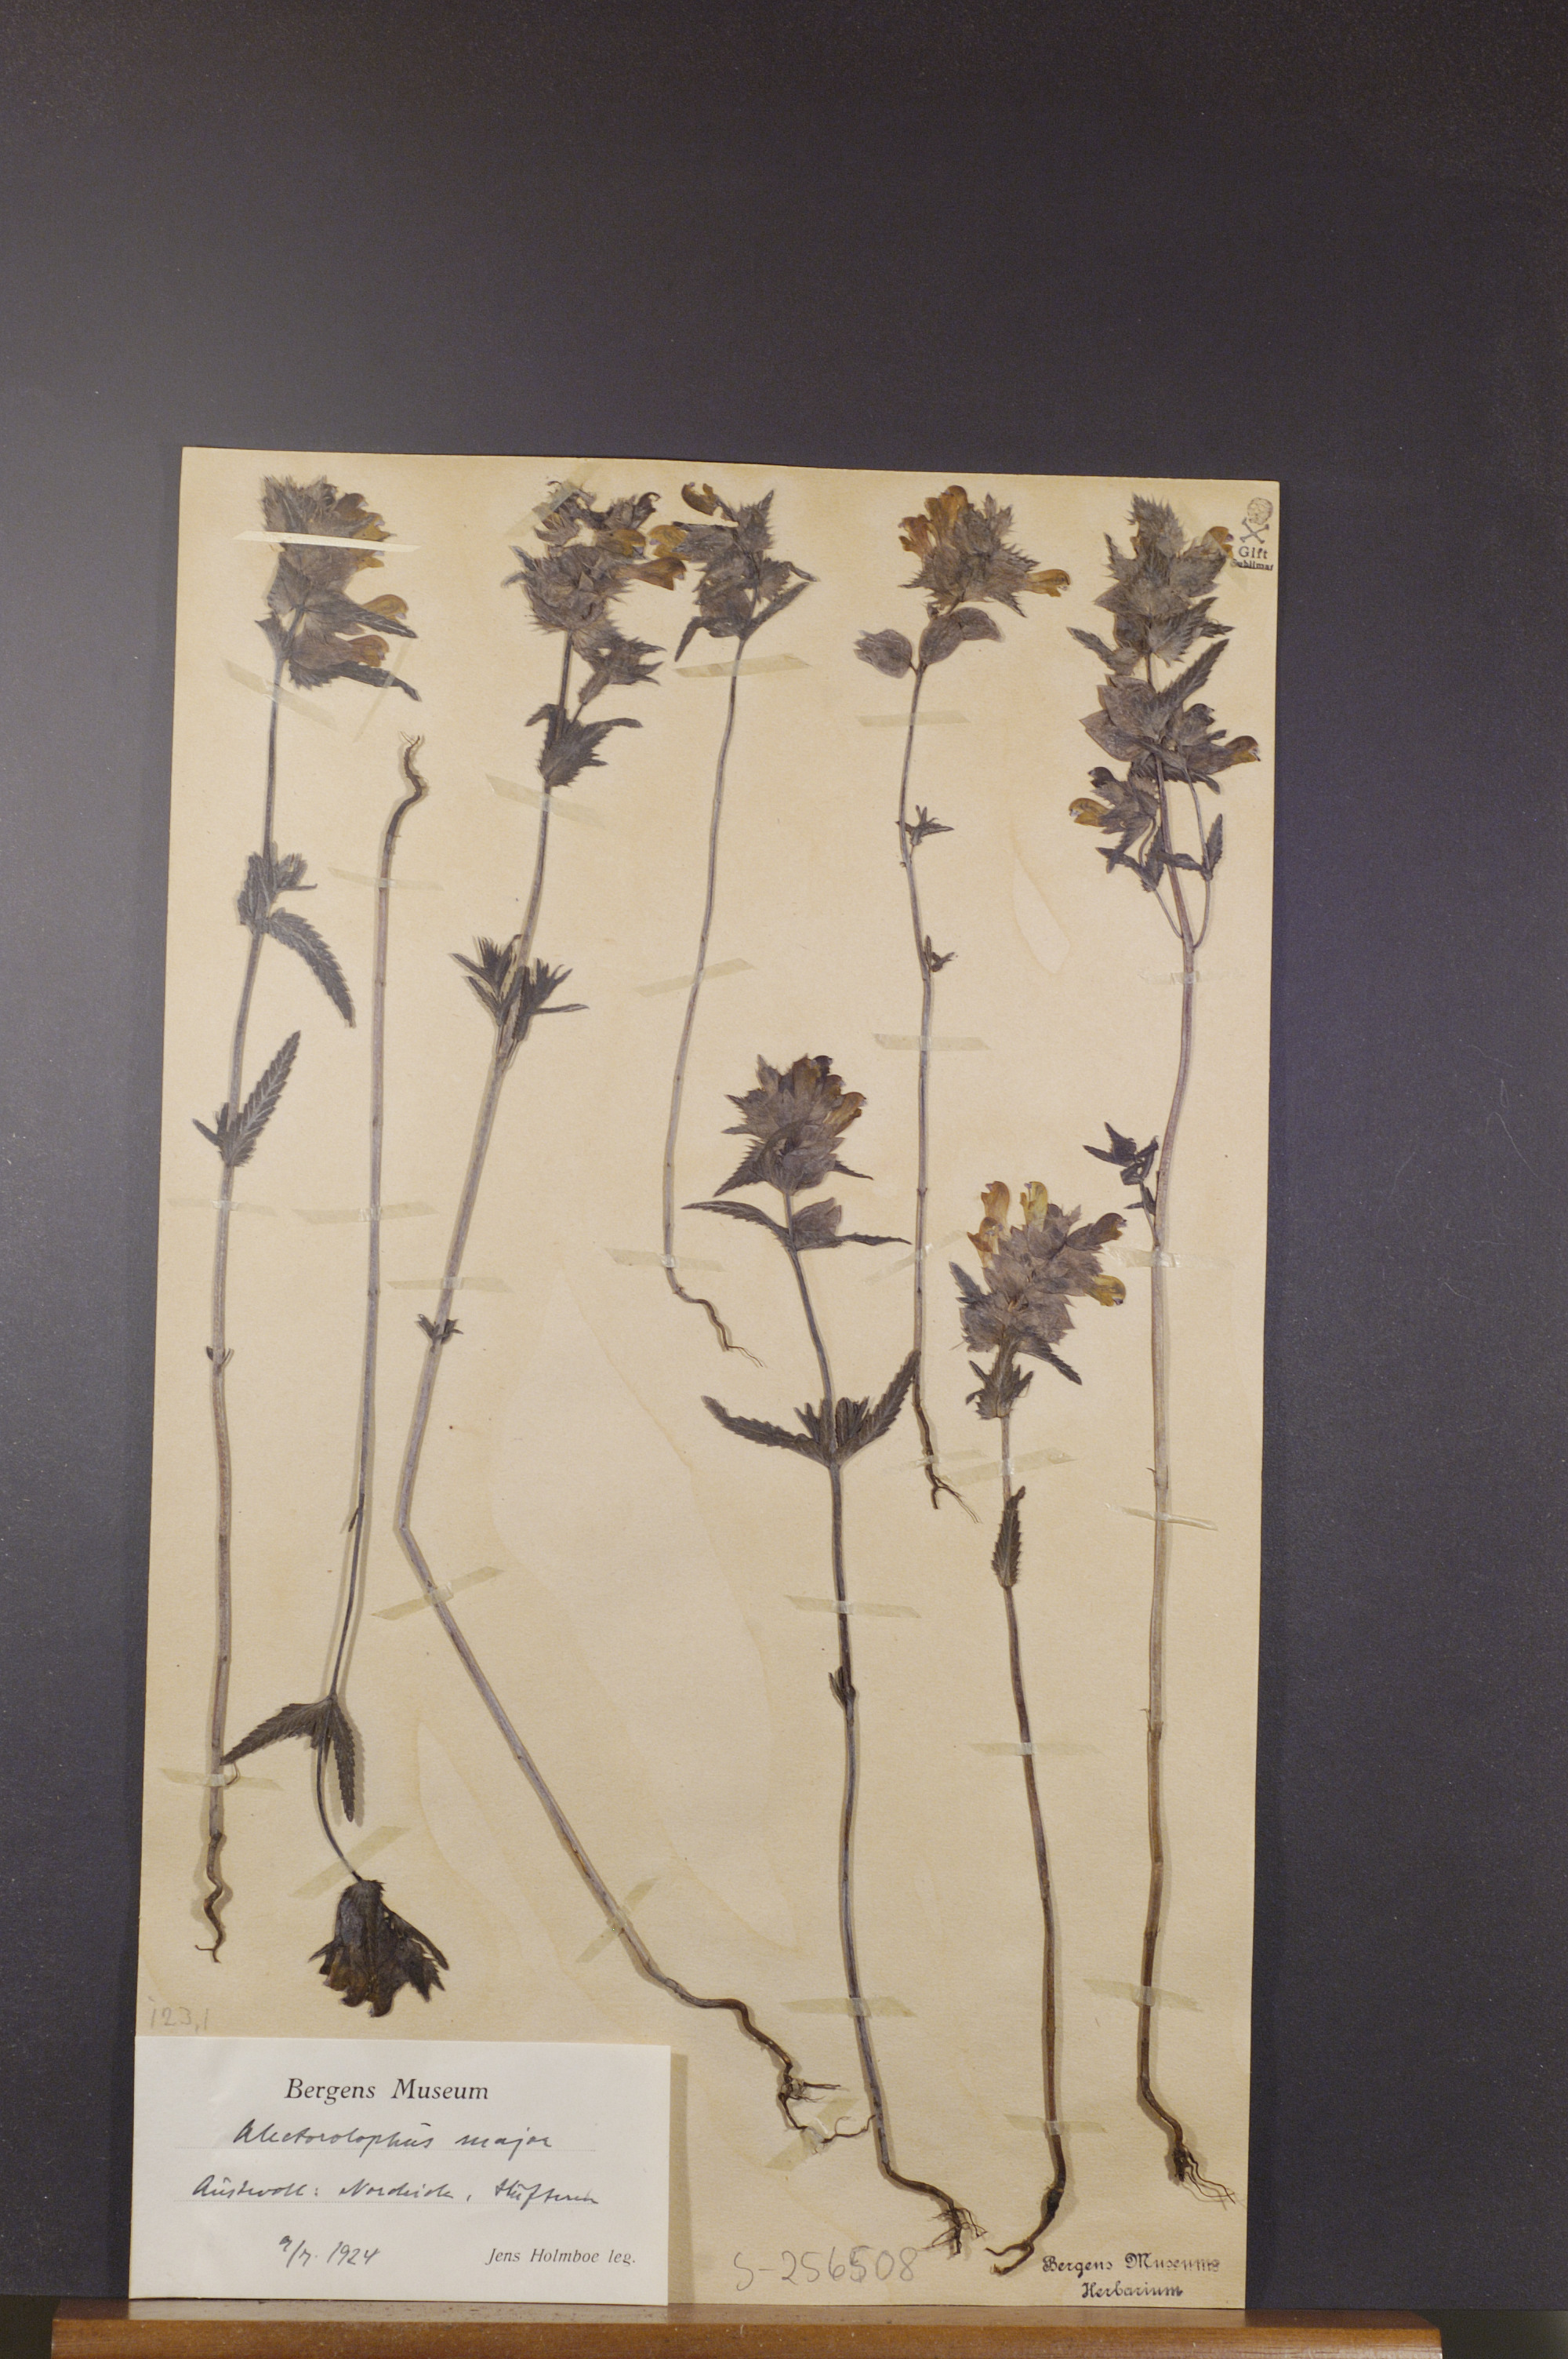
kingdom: Plantae
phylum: Tracheophyta
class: Magnoliopsida
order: Lamiales
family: Orobanchaceae
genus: Rhinanthus
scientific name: Rhinanthus serotinus
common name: Late-flowering yellow rattle
